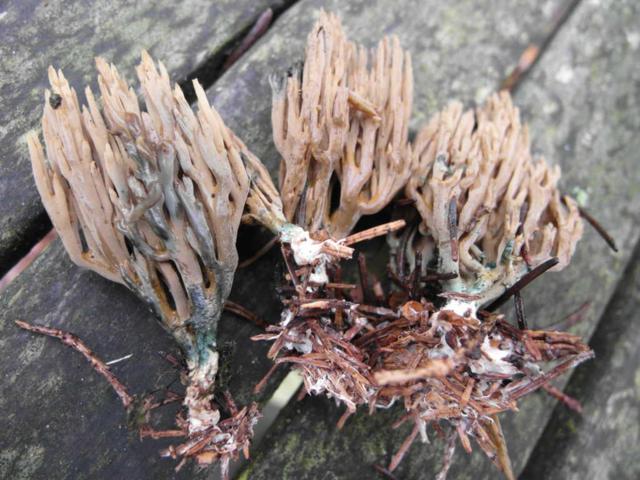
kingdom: Fungi
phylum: Basidiomycota
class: Agaricomycetes
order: Gomphales
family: Gomphaceae
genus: Phaeoclavulina
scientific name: Phaeoclavulina abietina
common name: gulgrøn koralsvamp
